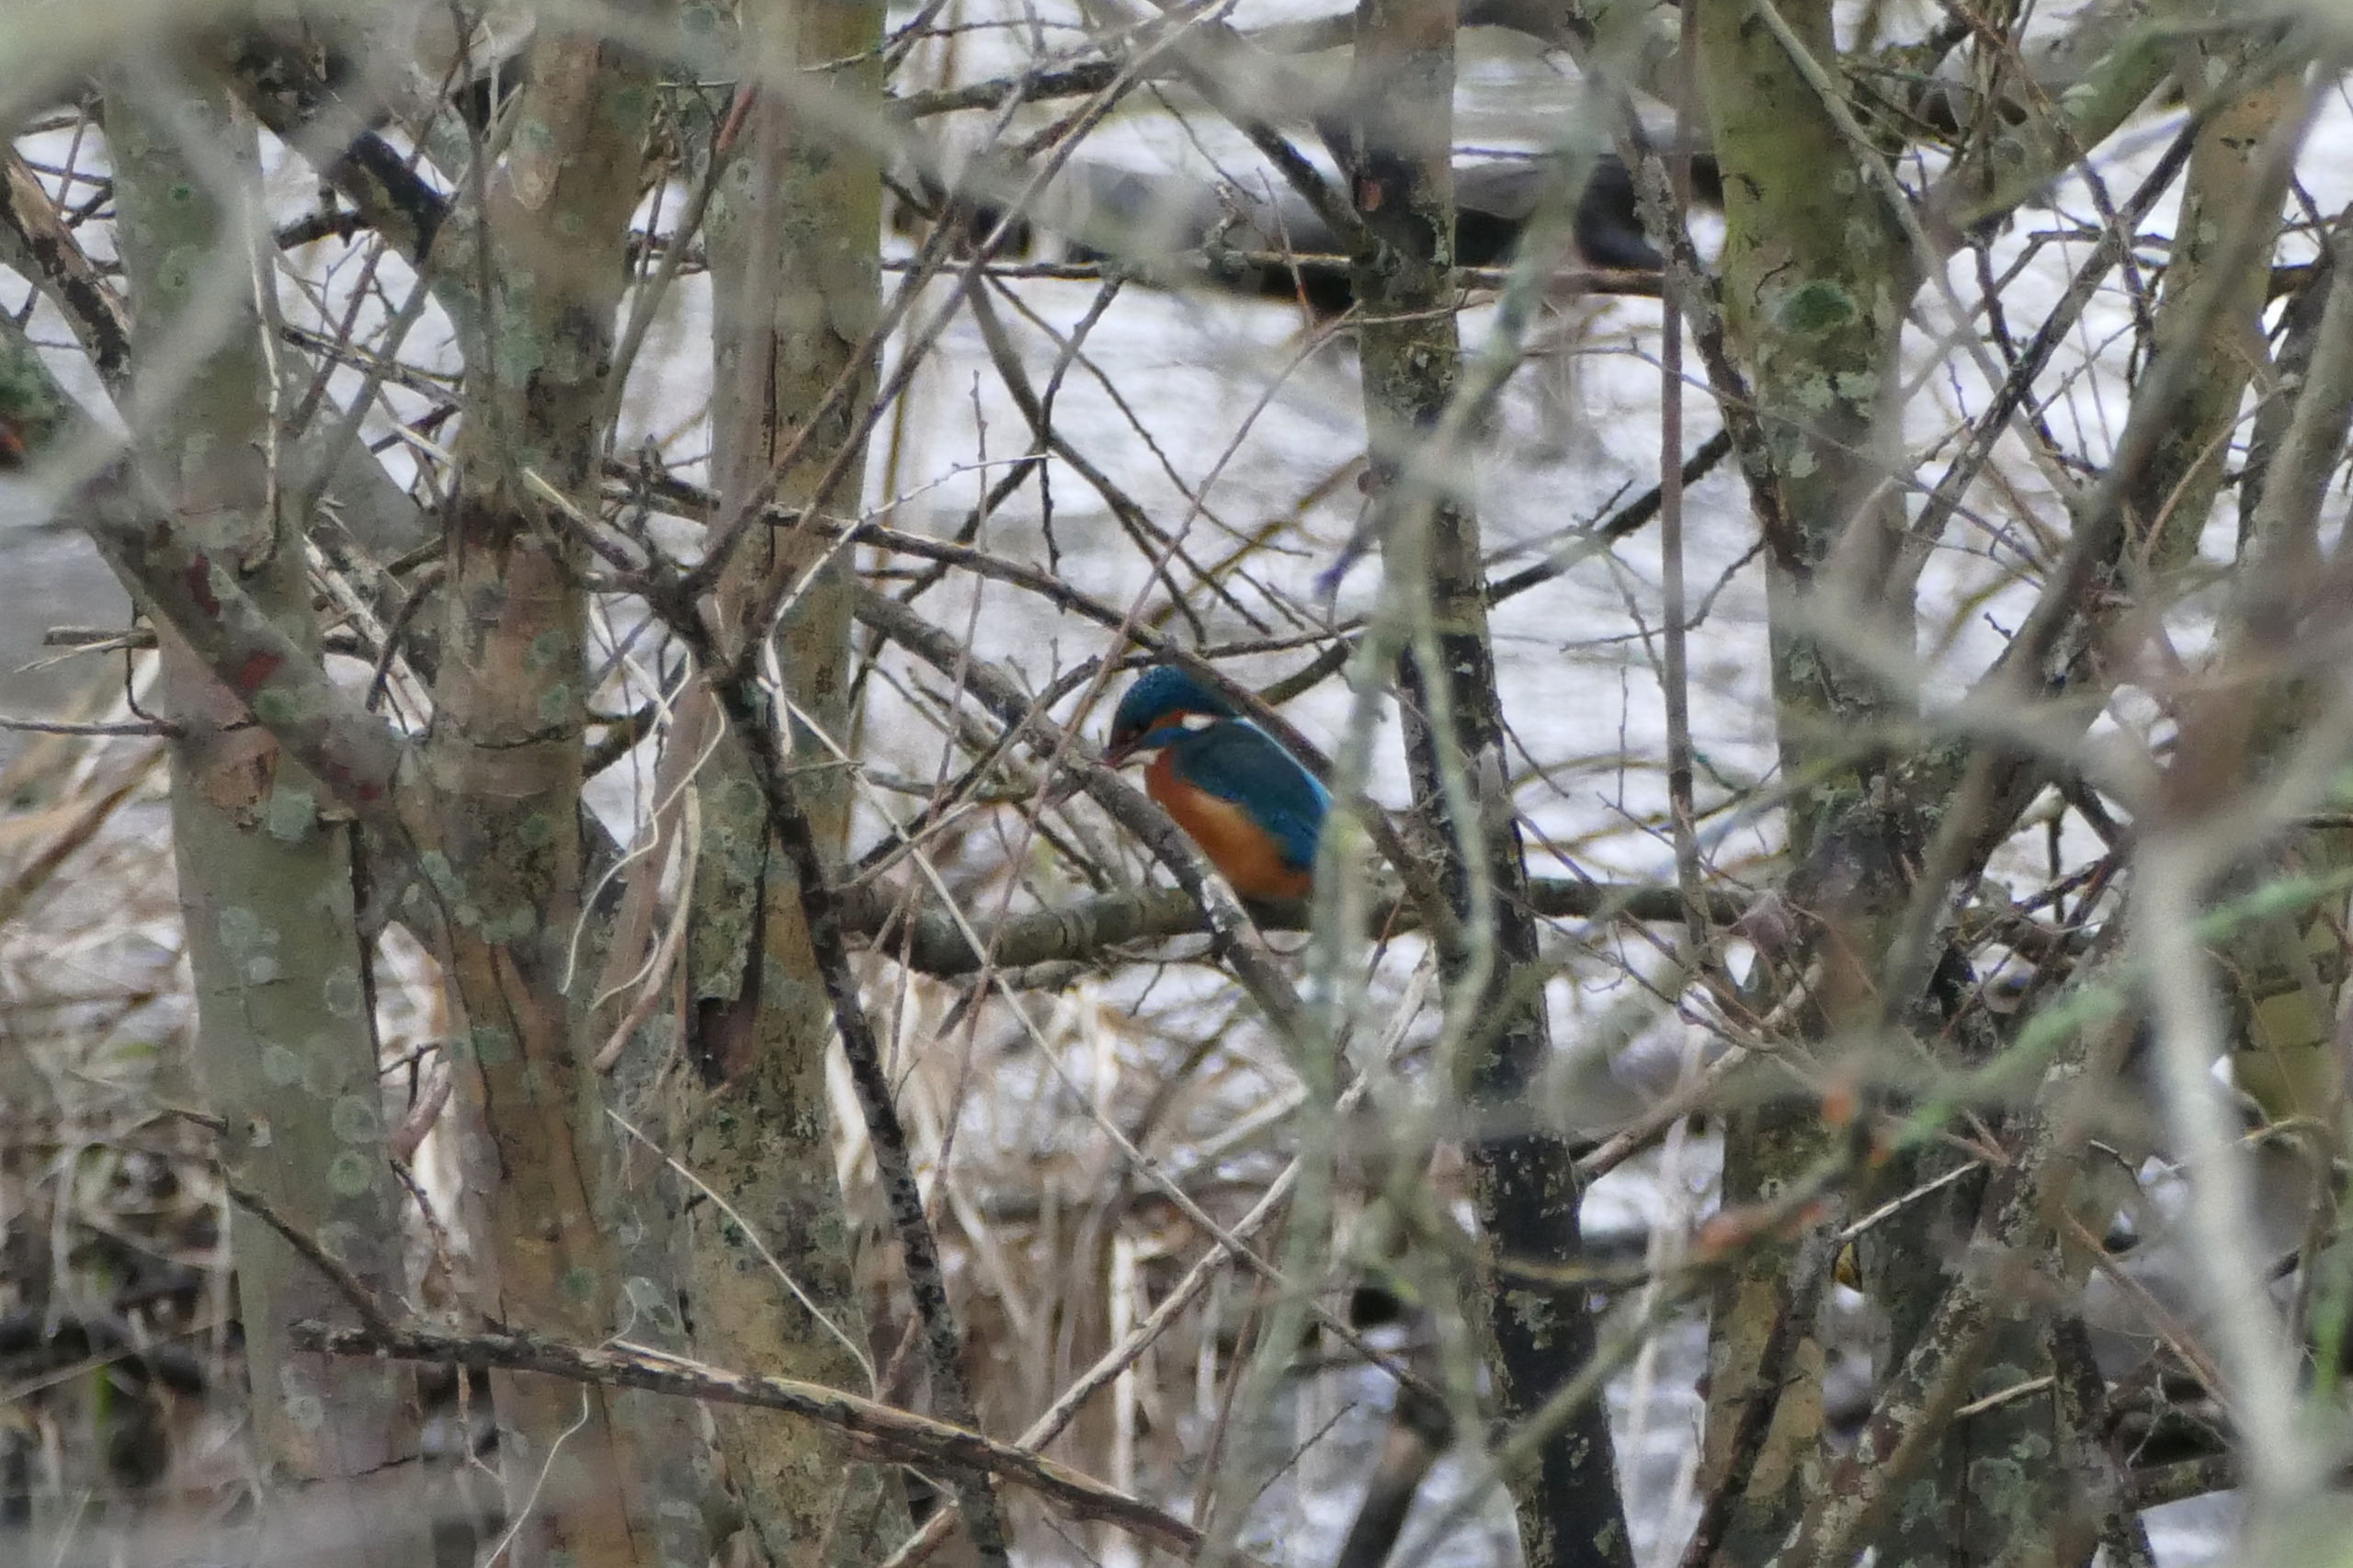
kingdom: Animalia
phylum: Chordata
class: Aves
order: Coraciiformes
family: Alcedinidae
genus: Alcedo
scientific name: Alcedo atthis
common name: Isfugl
